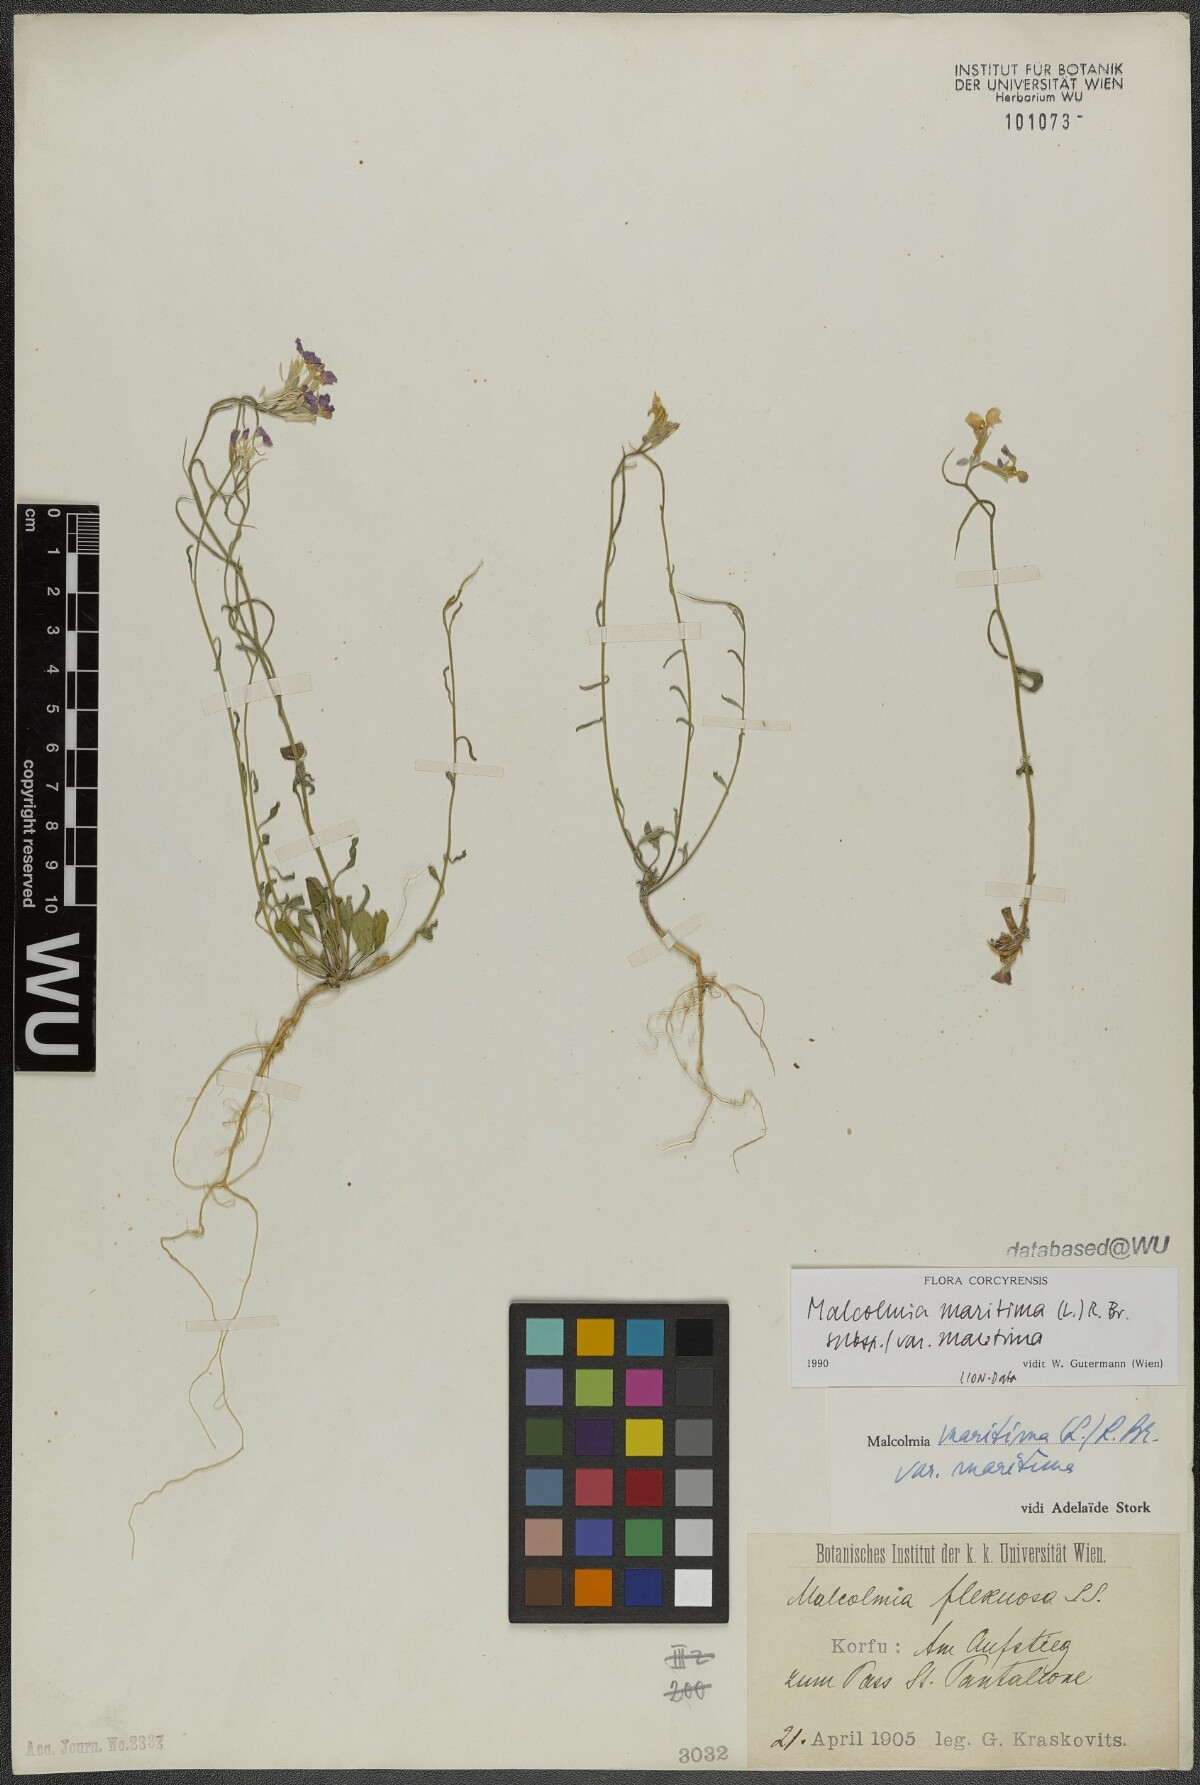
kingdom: Plantae
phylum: Tracheophyta
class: Magnoliopsida
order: Brassicales
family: Brassicaceae
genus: Malcolmia
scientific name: Malcolmia maritima
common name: Virginia stock
